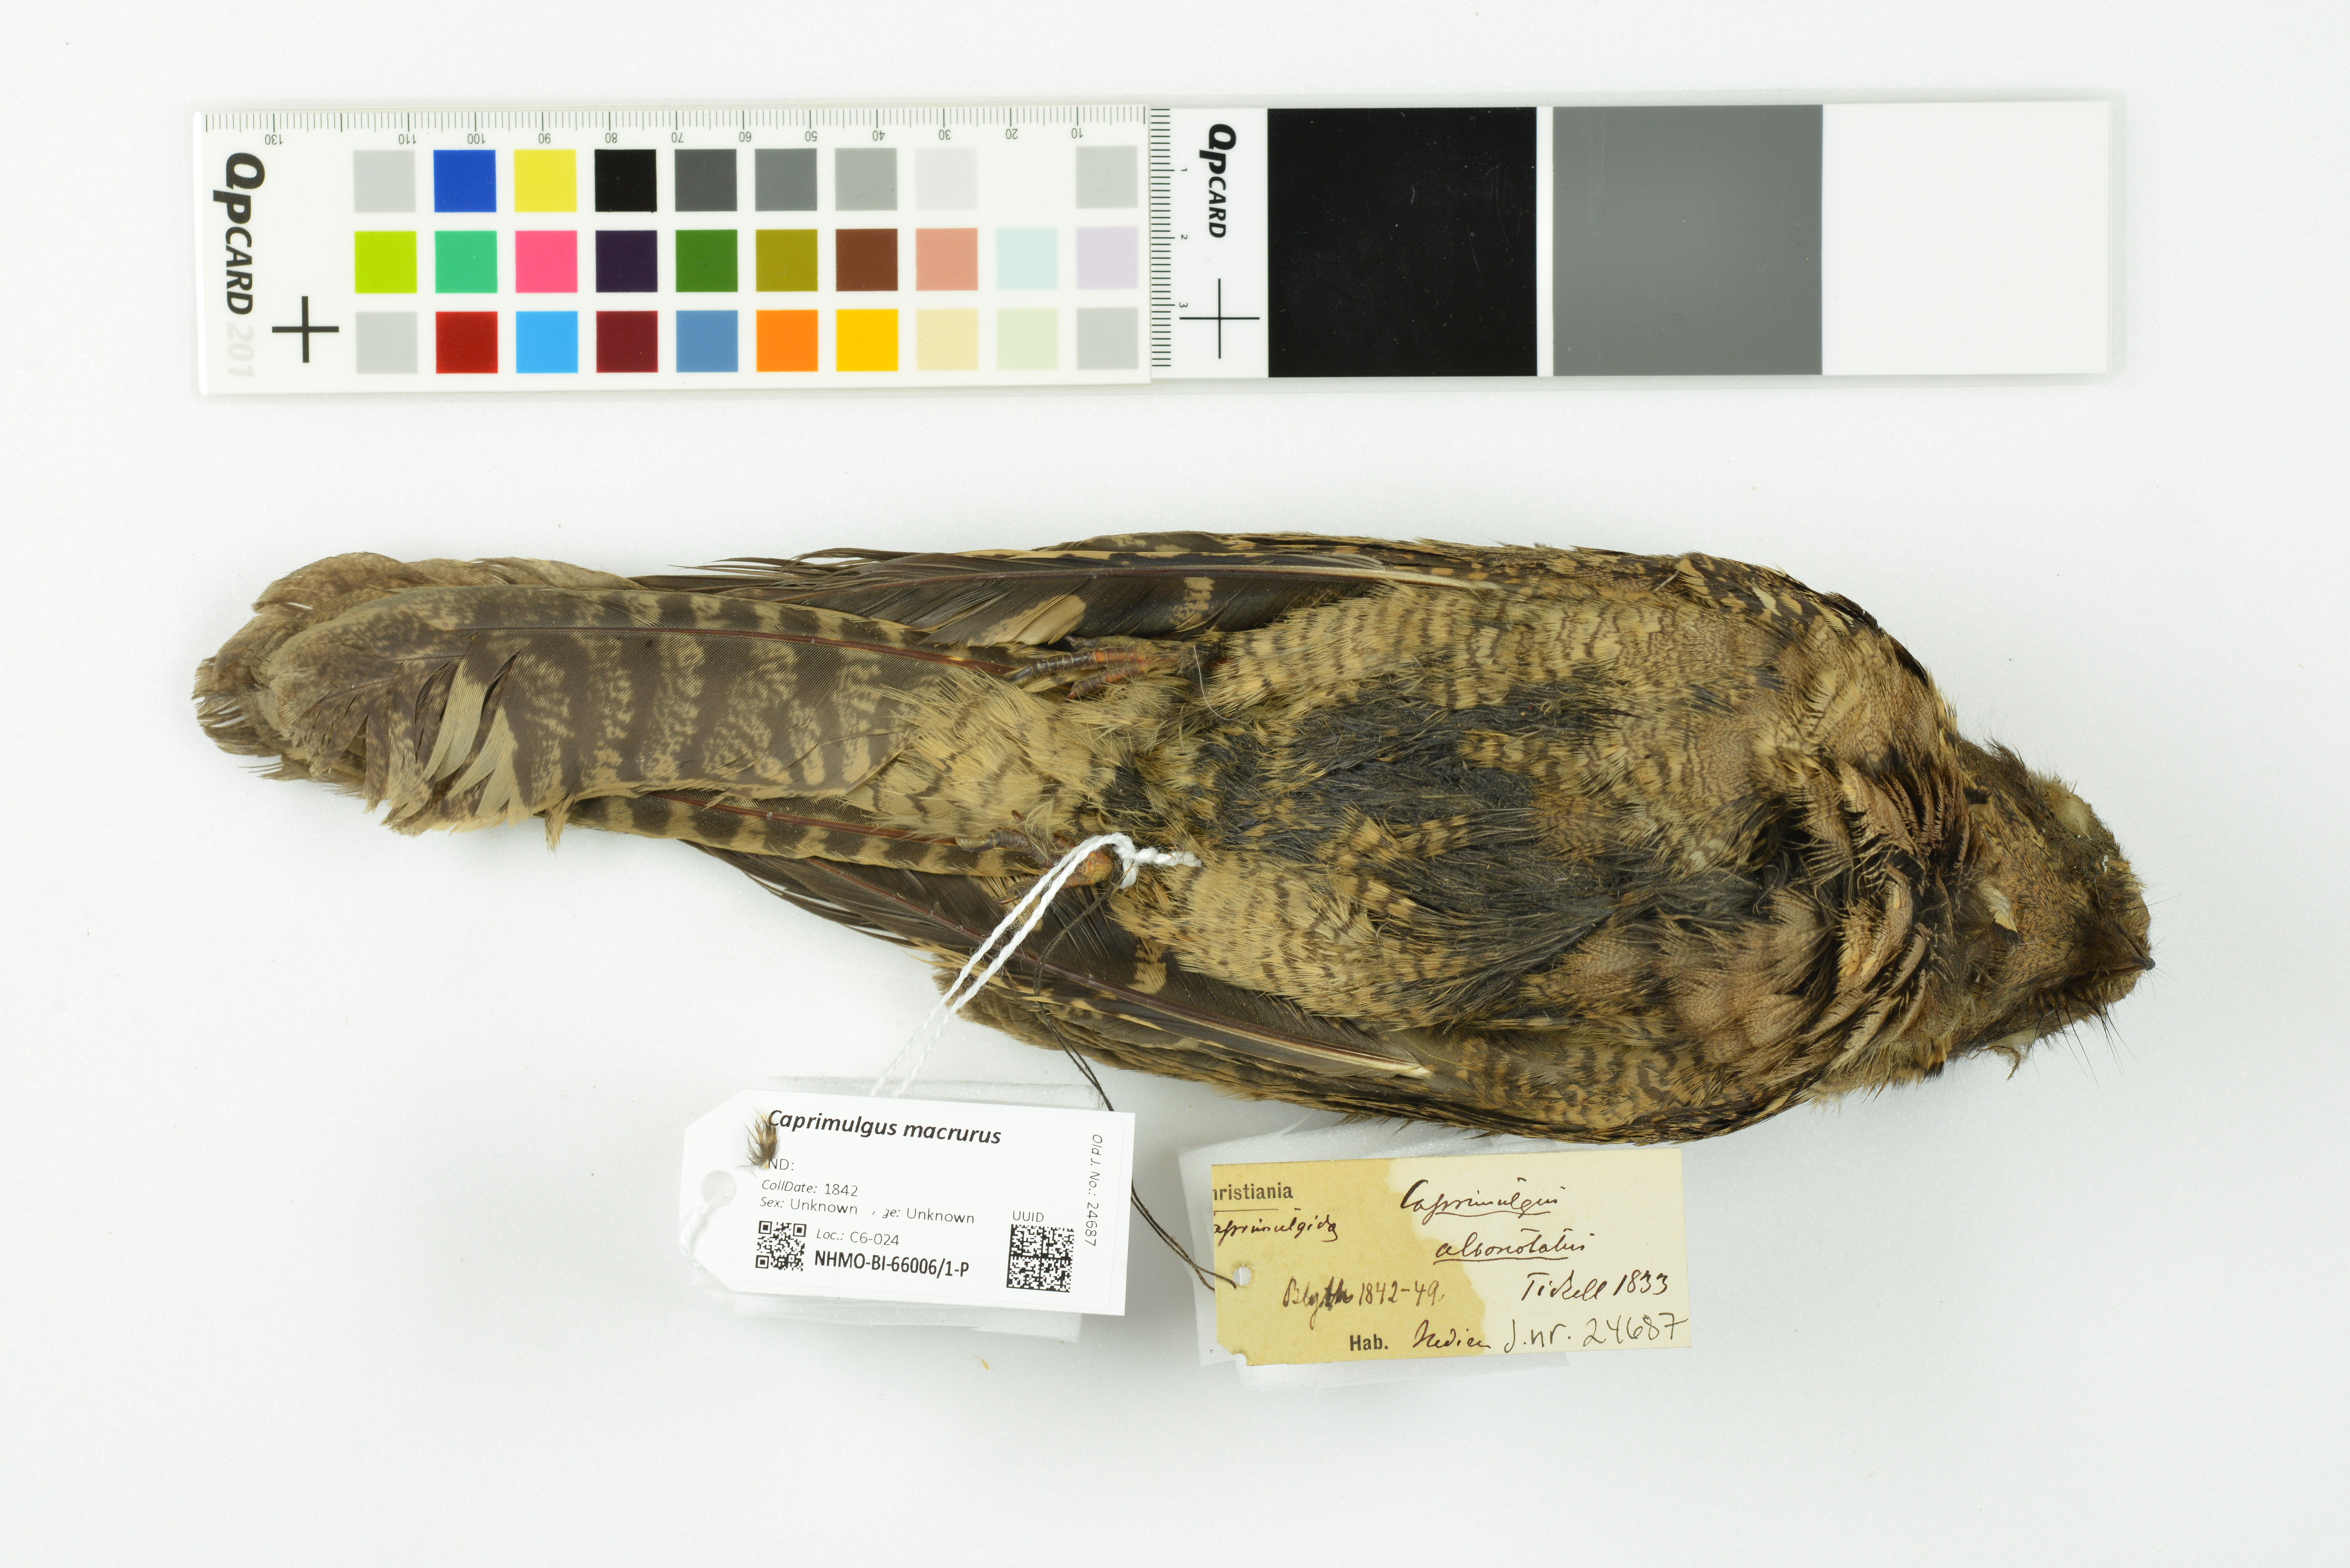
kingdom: Animalia
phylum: Chordata
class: Aves
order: Caprimulgiformes
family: Caprimulgidae
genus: Caprimulgus
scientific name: Caprimulgus macrurus
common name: Large-tailed nightjar
